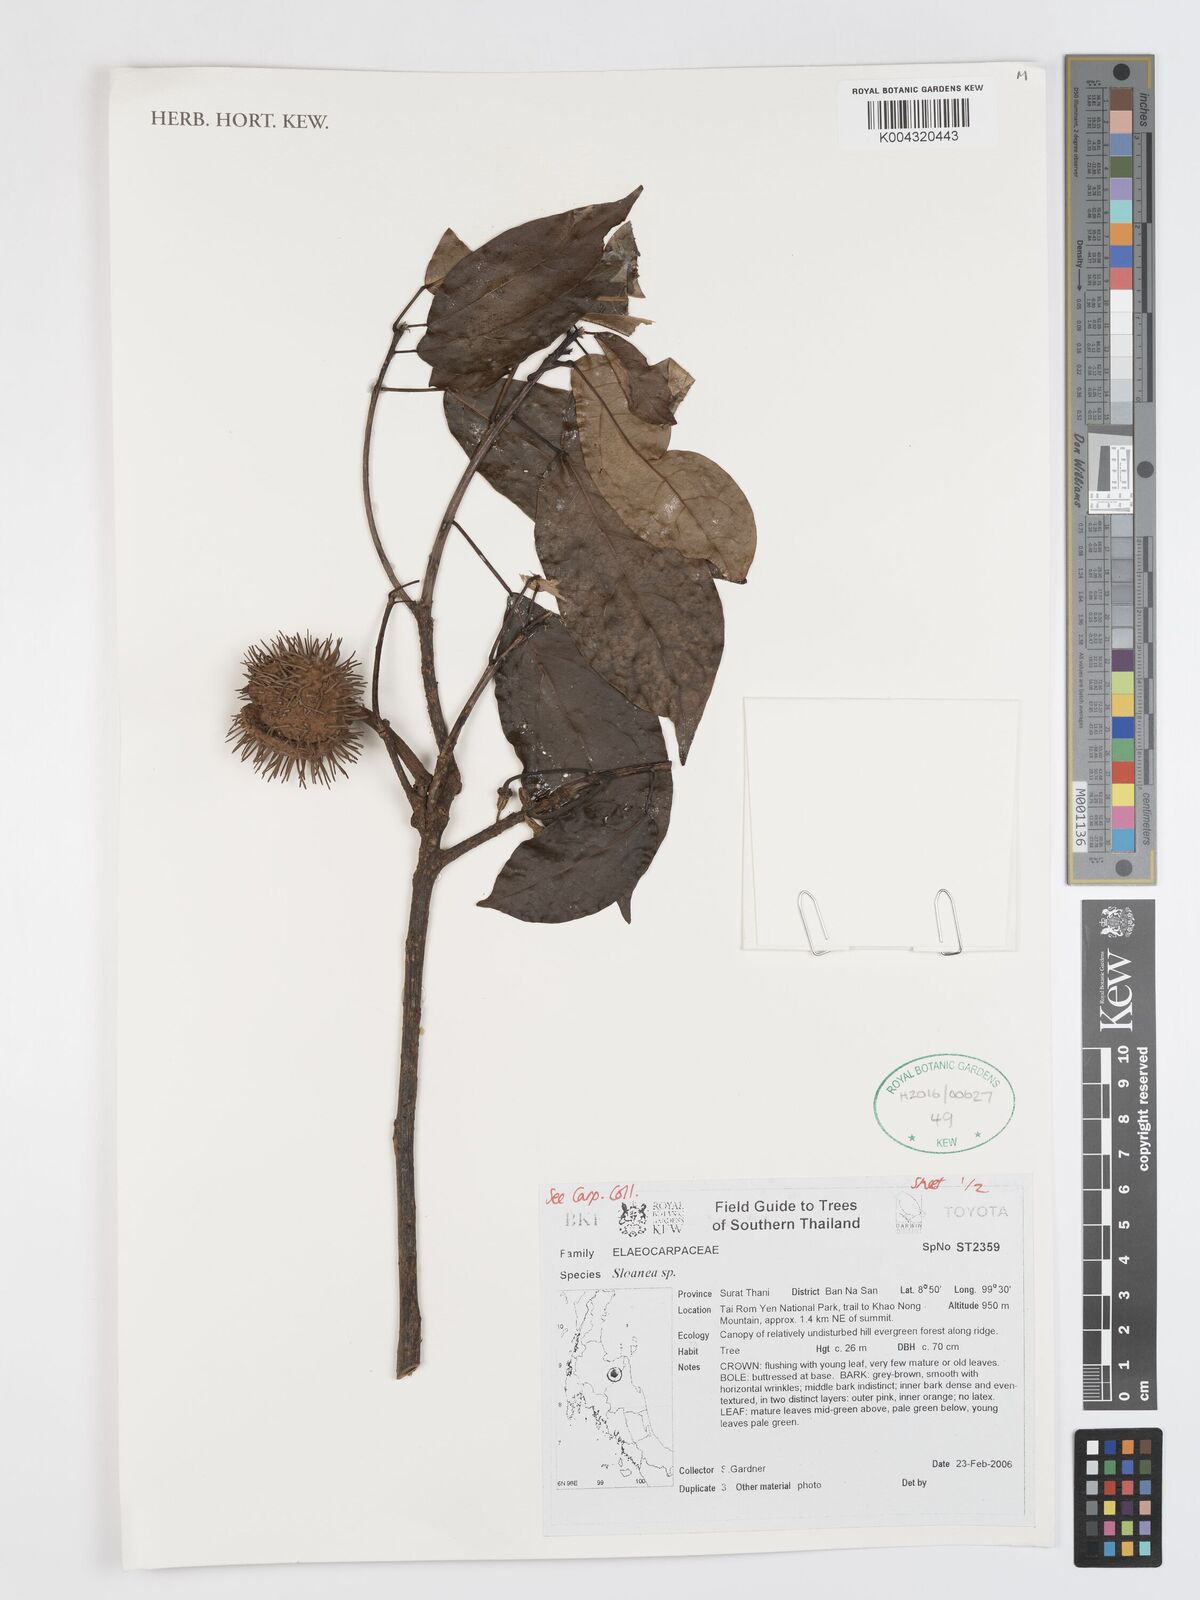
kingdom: Plantae
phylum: Tracheophyta
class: Magnoliopsida
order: Oxalidales
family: Elaeocarpaceae
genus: Sloanea
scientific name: Sloanea
